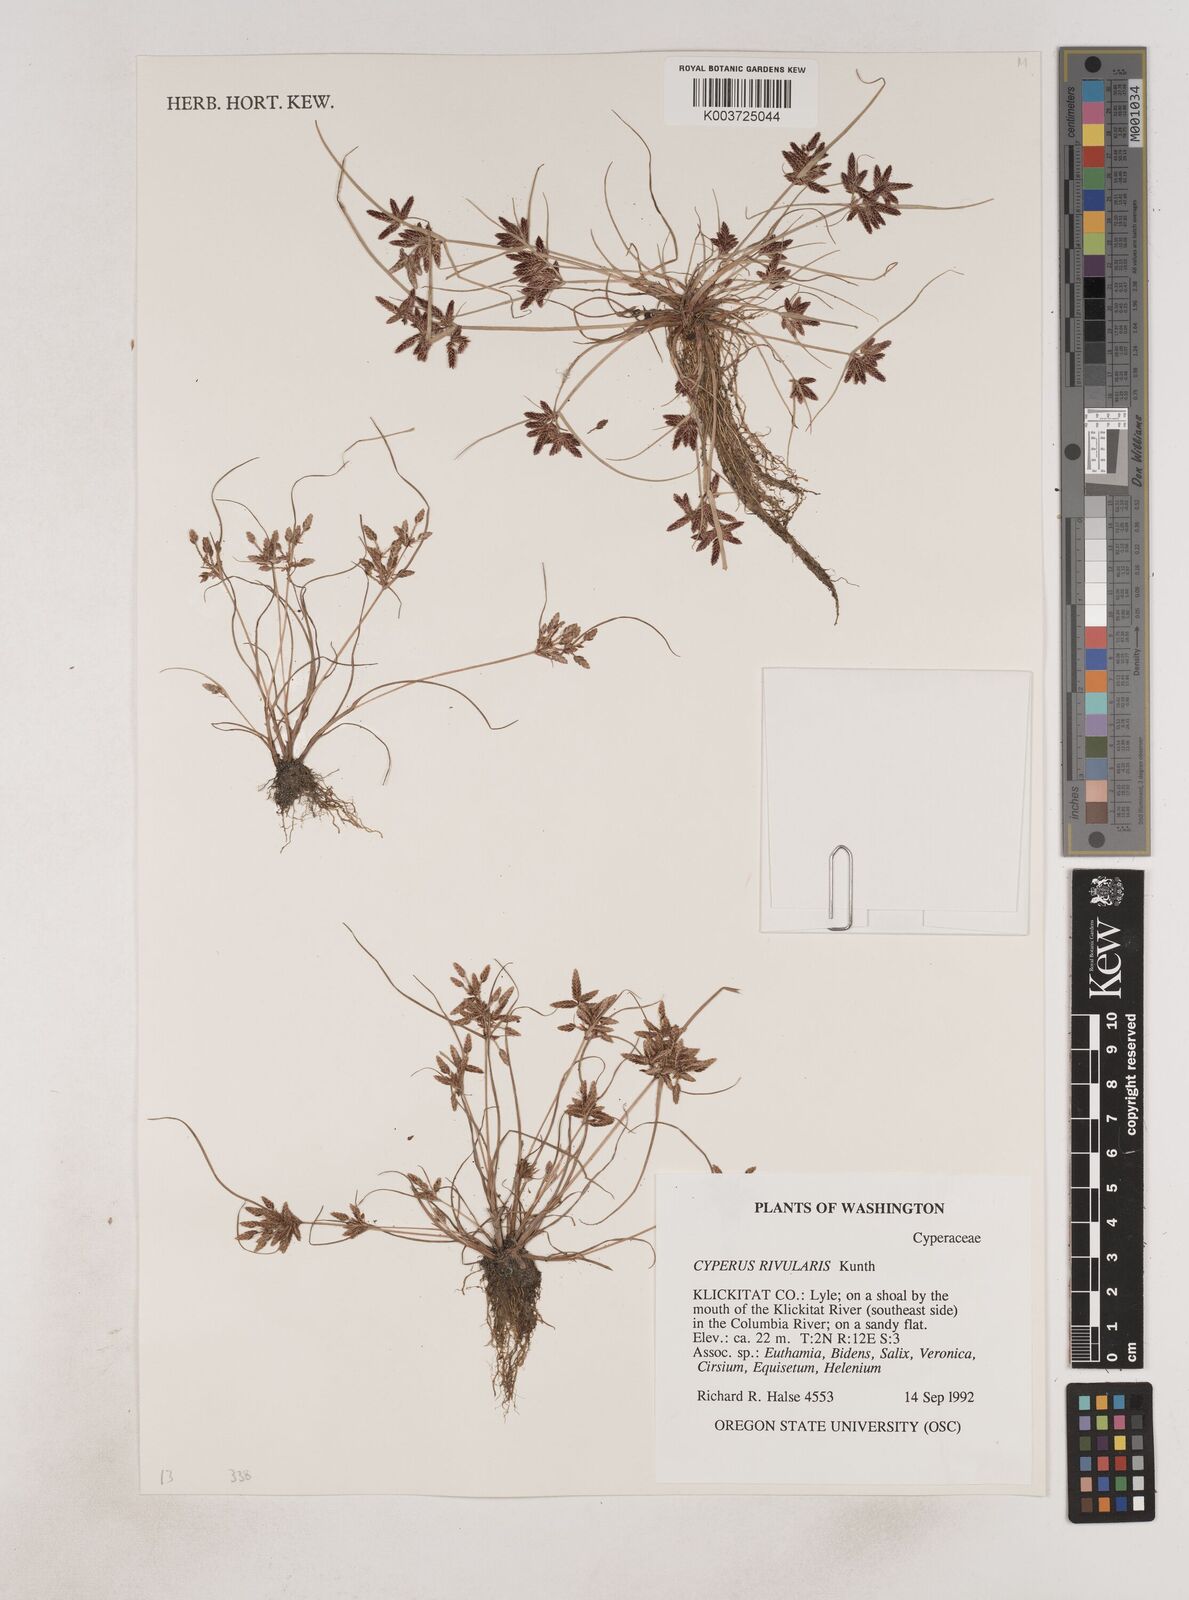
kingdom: Plantae
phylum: Tracheophyta
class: Liliopsida
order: Poales
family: Cyperaceae
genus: Cyperus
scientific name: Cyperus bipartitus
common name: Brook flatsedge
